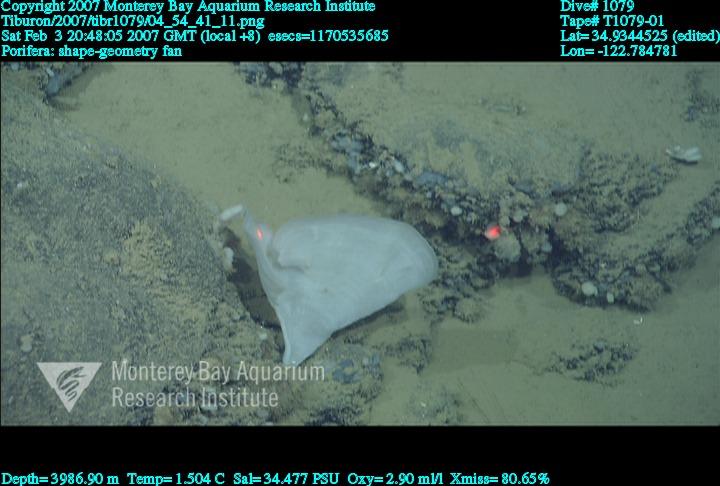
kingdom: Animalia
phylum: Porifera
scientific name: Porifera
